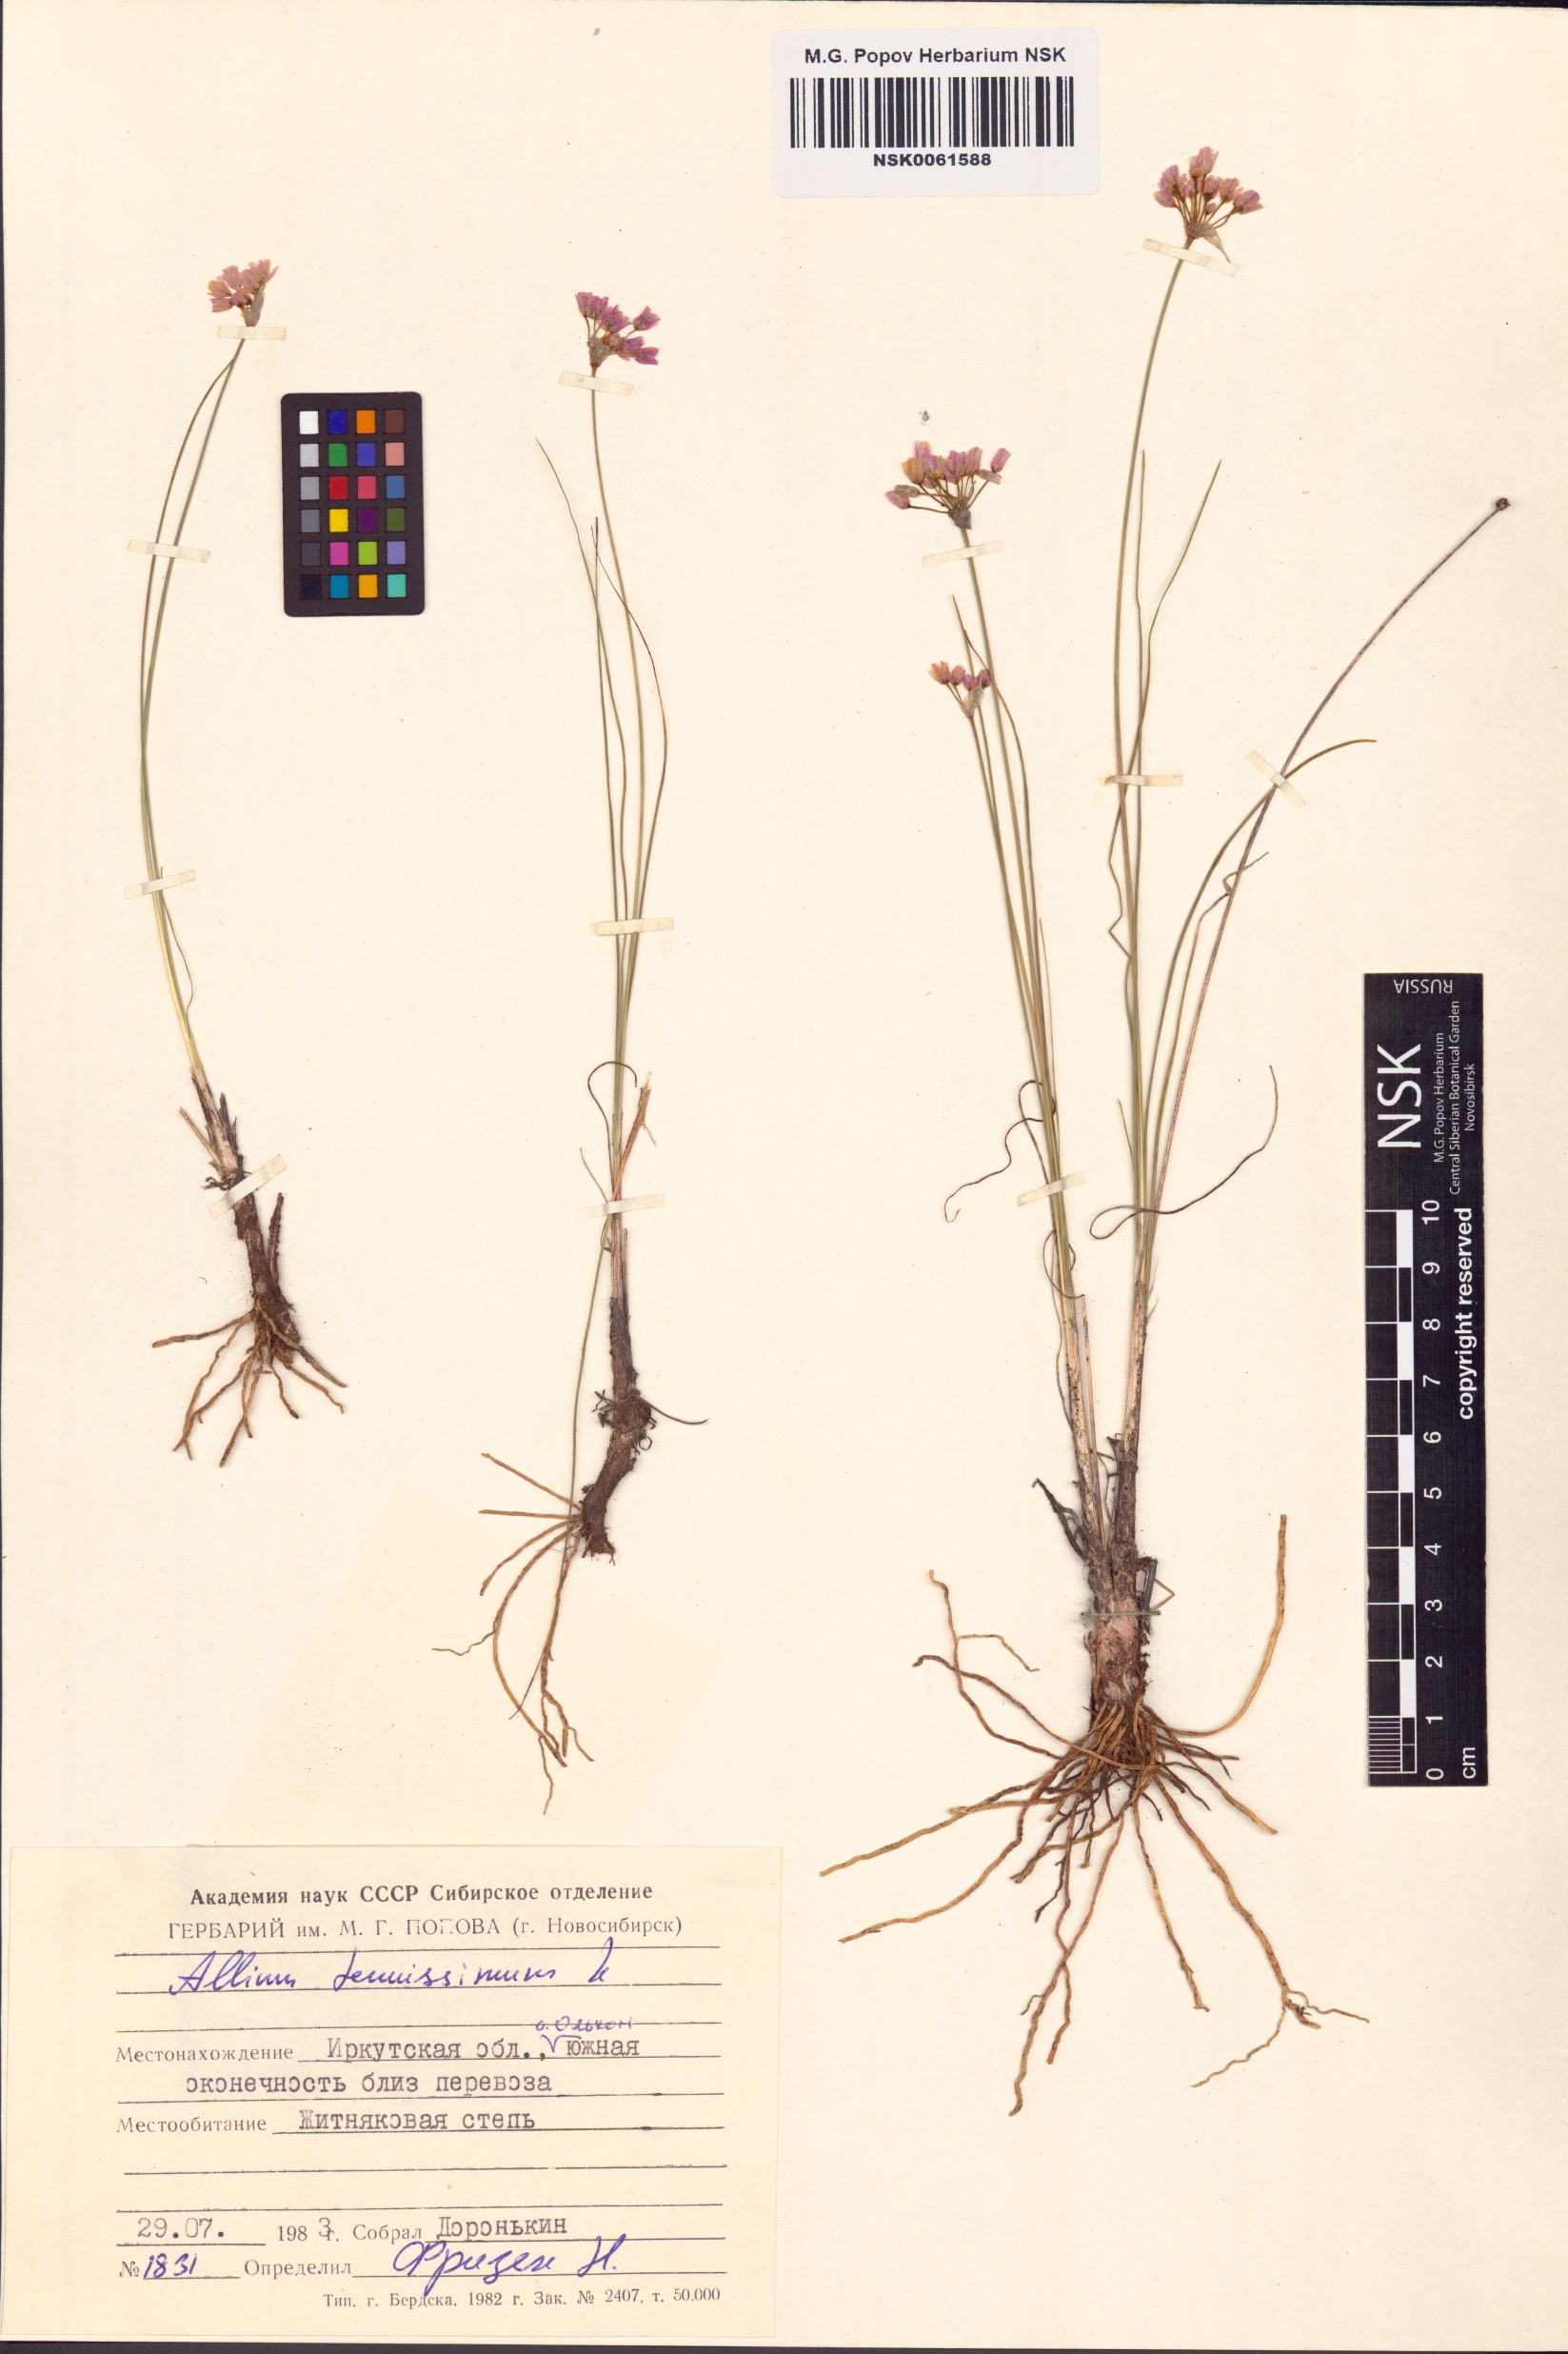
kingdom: Plantae
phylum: Tracheophyta
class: Liliopsida
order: Asparagales
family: Amaryllidaceae
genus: Allium
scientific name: Allium tenuissimum
